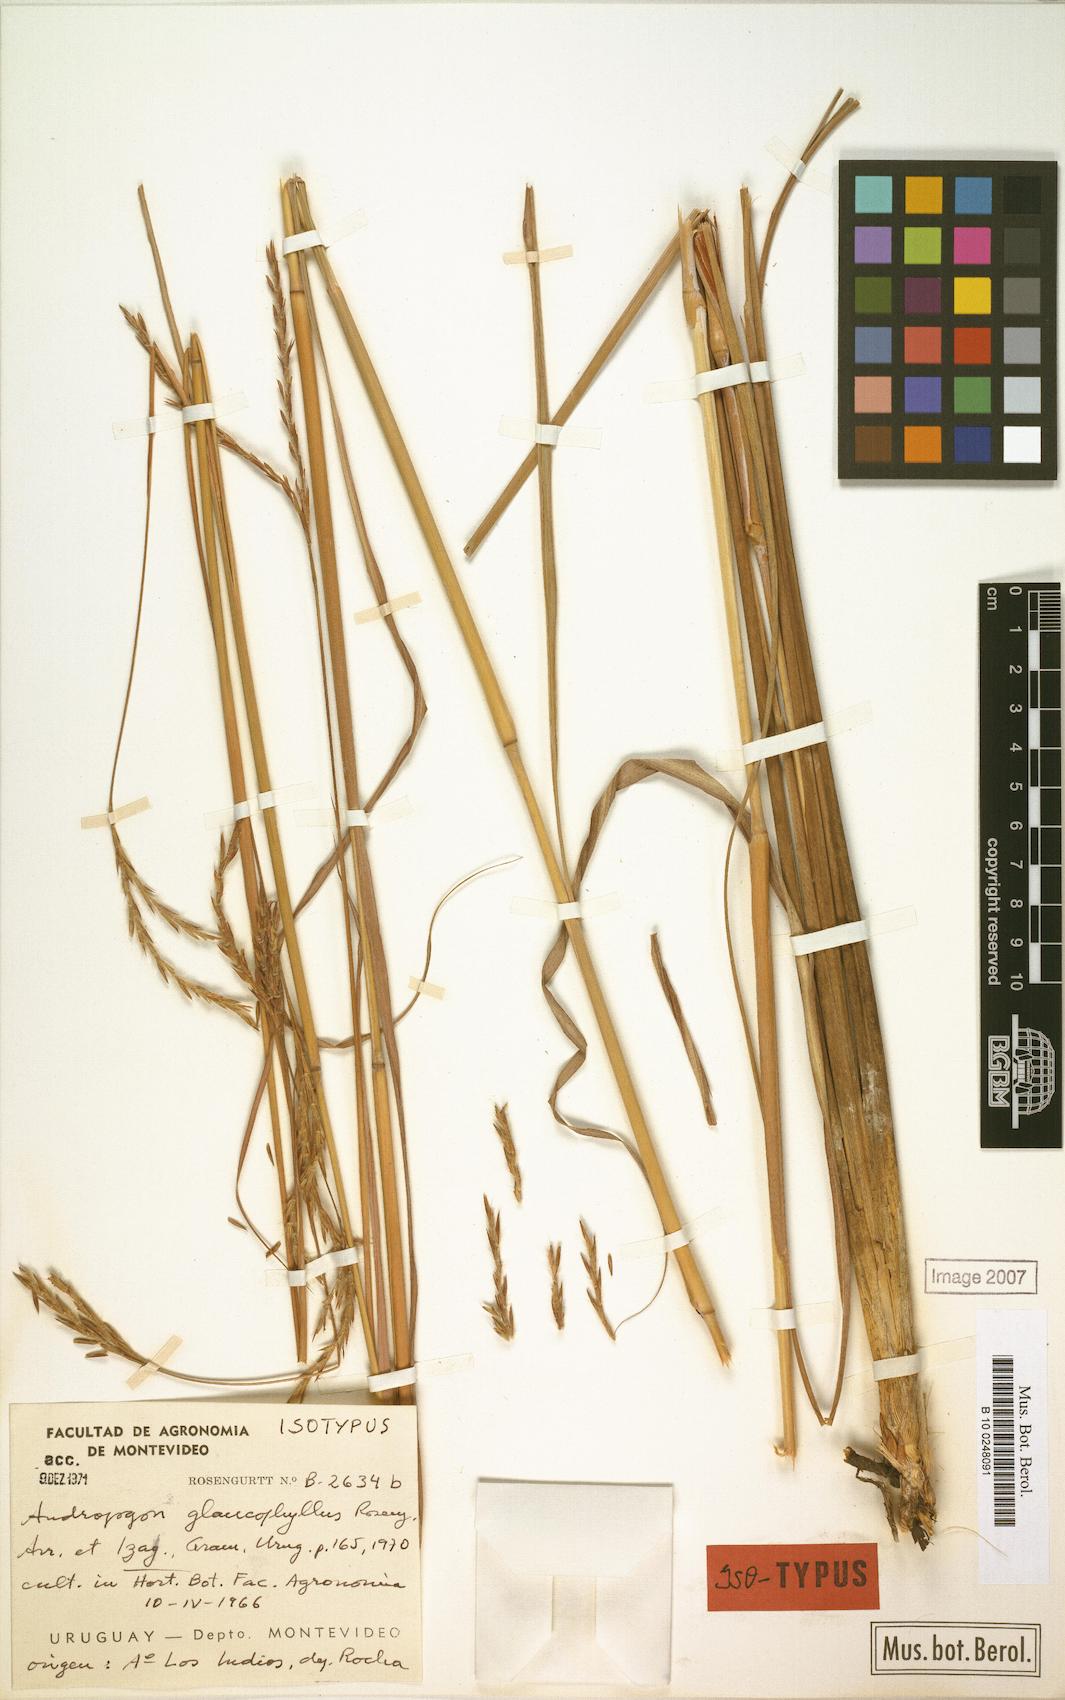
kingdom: Plantae
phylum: Tracheophyta
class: Liliopsida
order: Poales
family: Poaceae
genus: Andropogon
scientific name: Andropogon glaucophyllus
